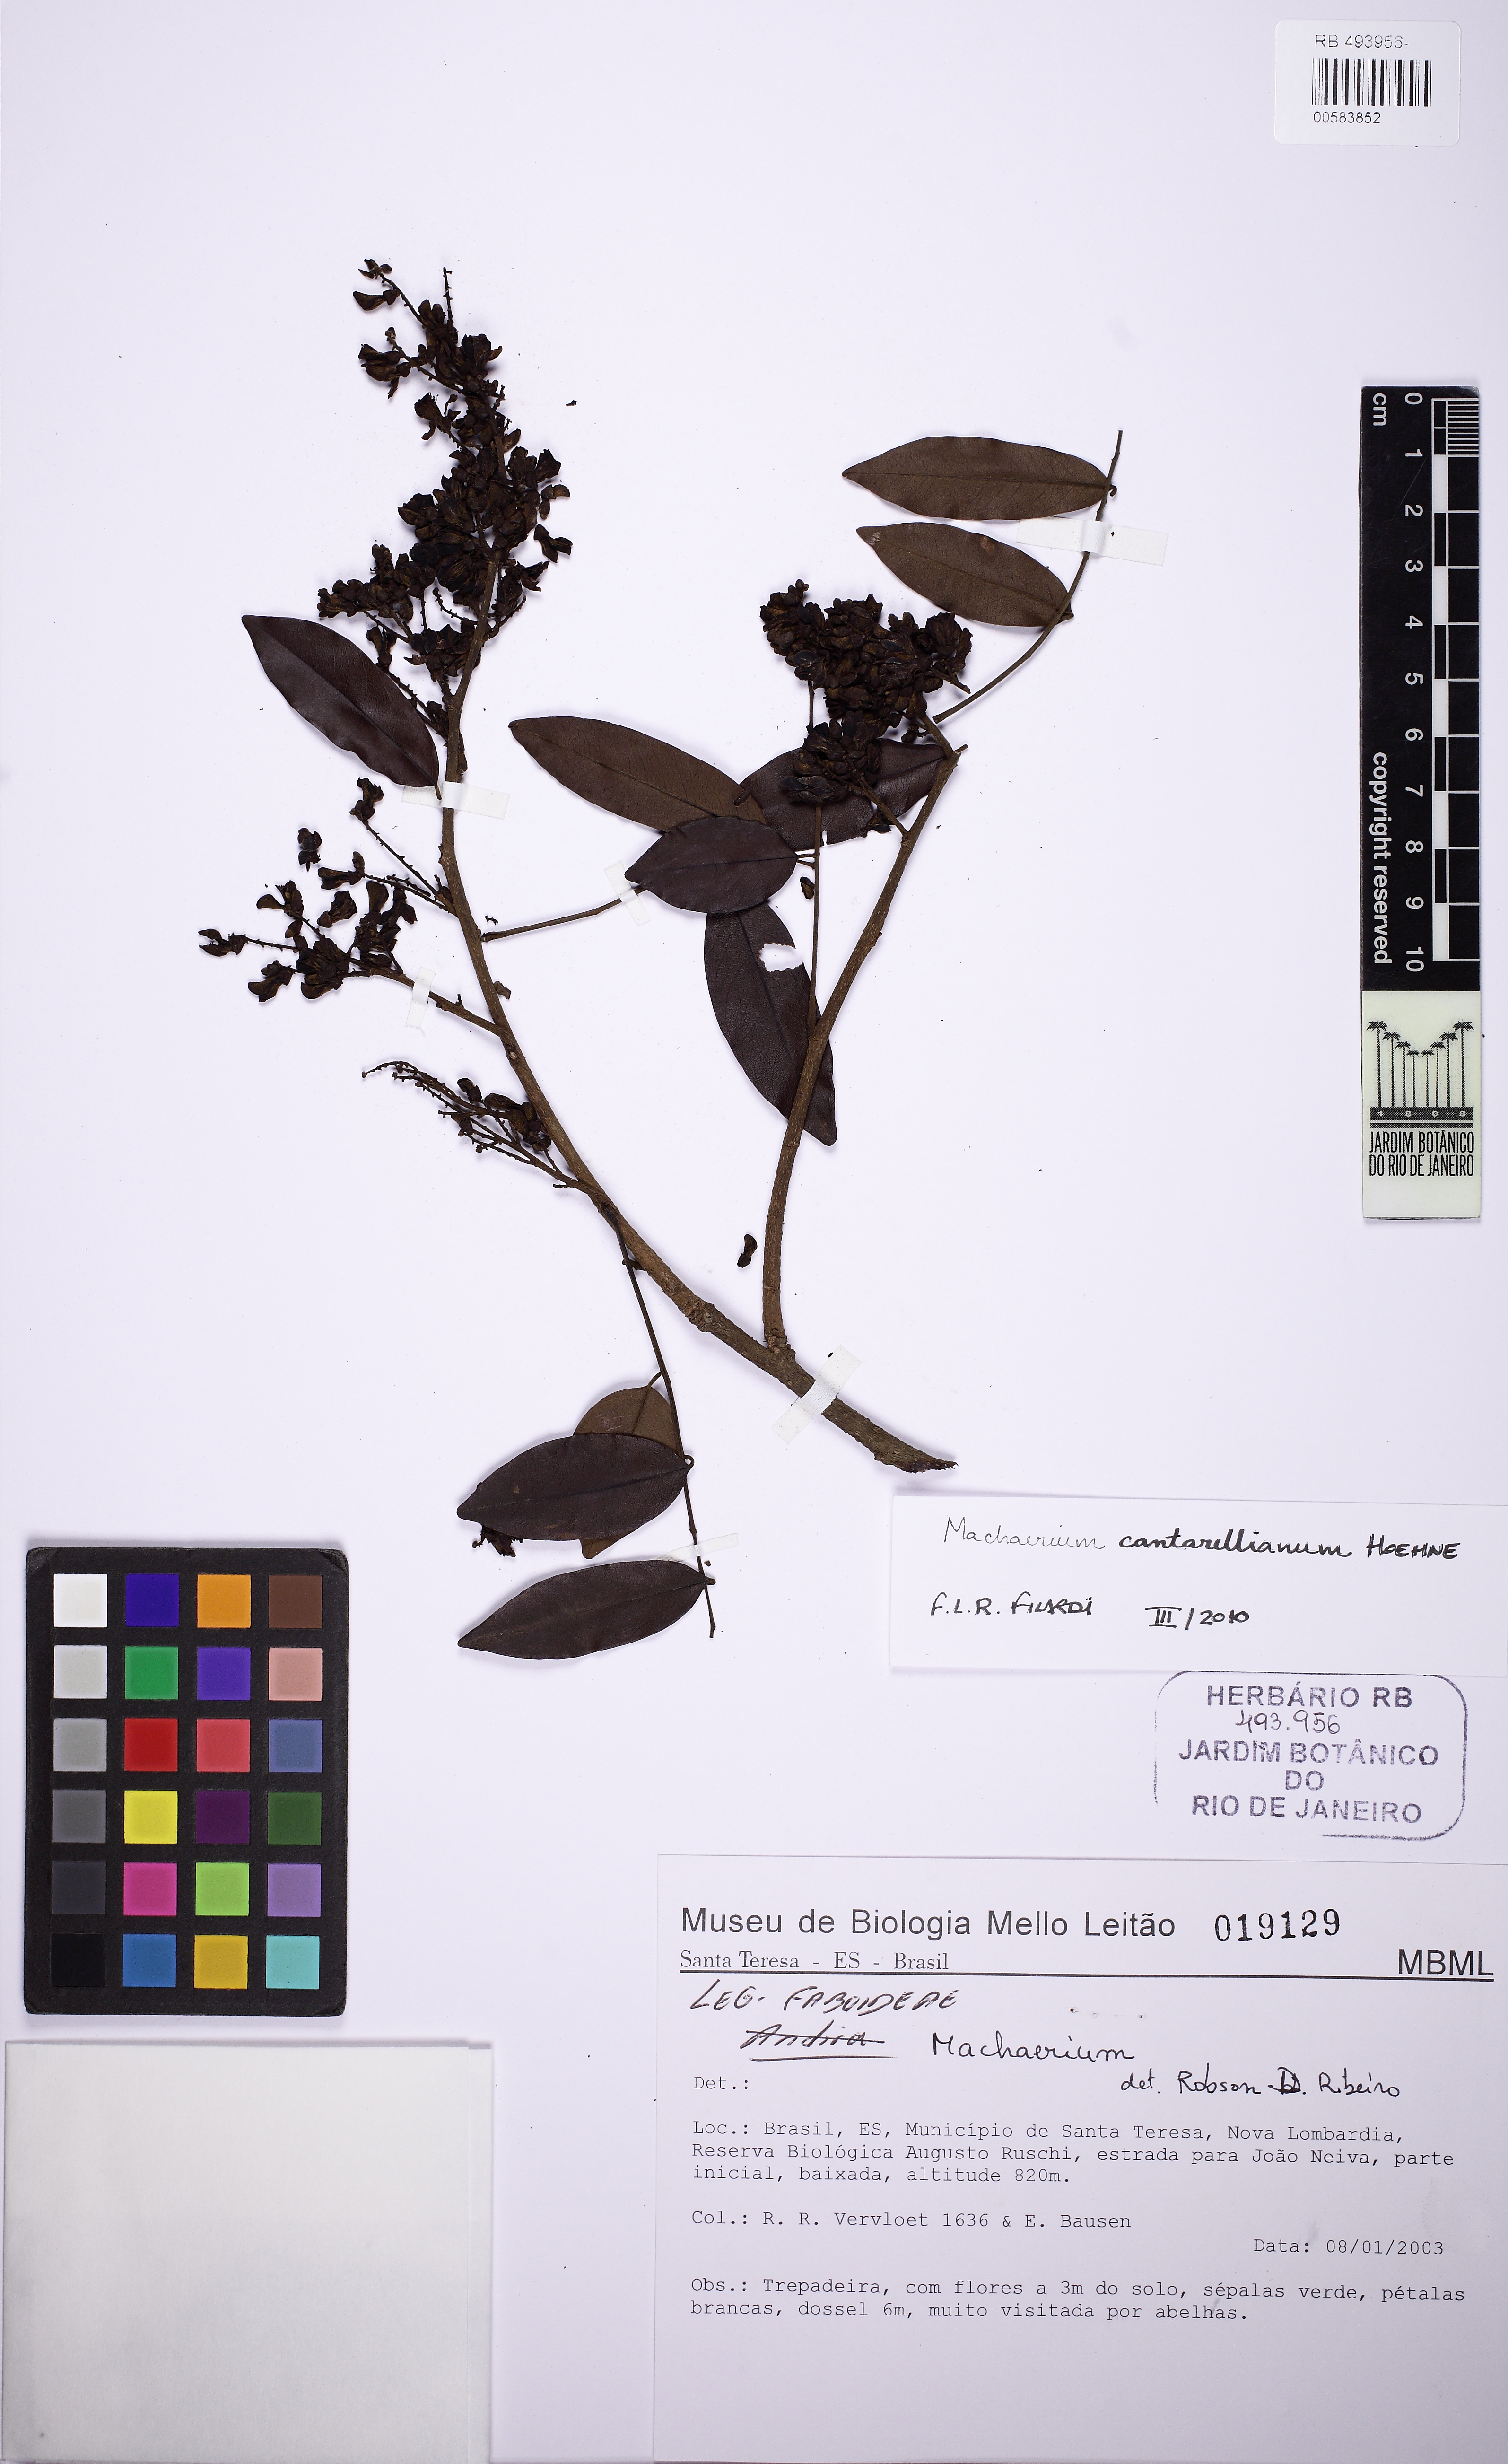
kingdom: Plantae
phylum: Tracheophyta
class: Magnoliopsida
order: Fabales
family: Fabaceae
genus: Machaerium
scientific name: Machaerium cantarellianum
